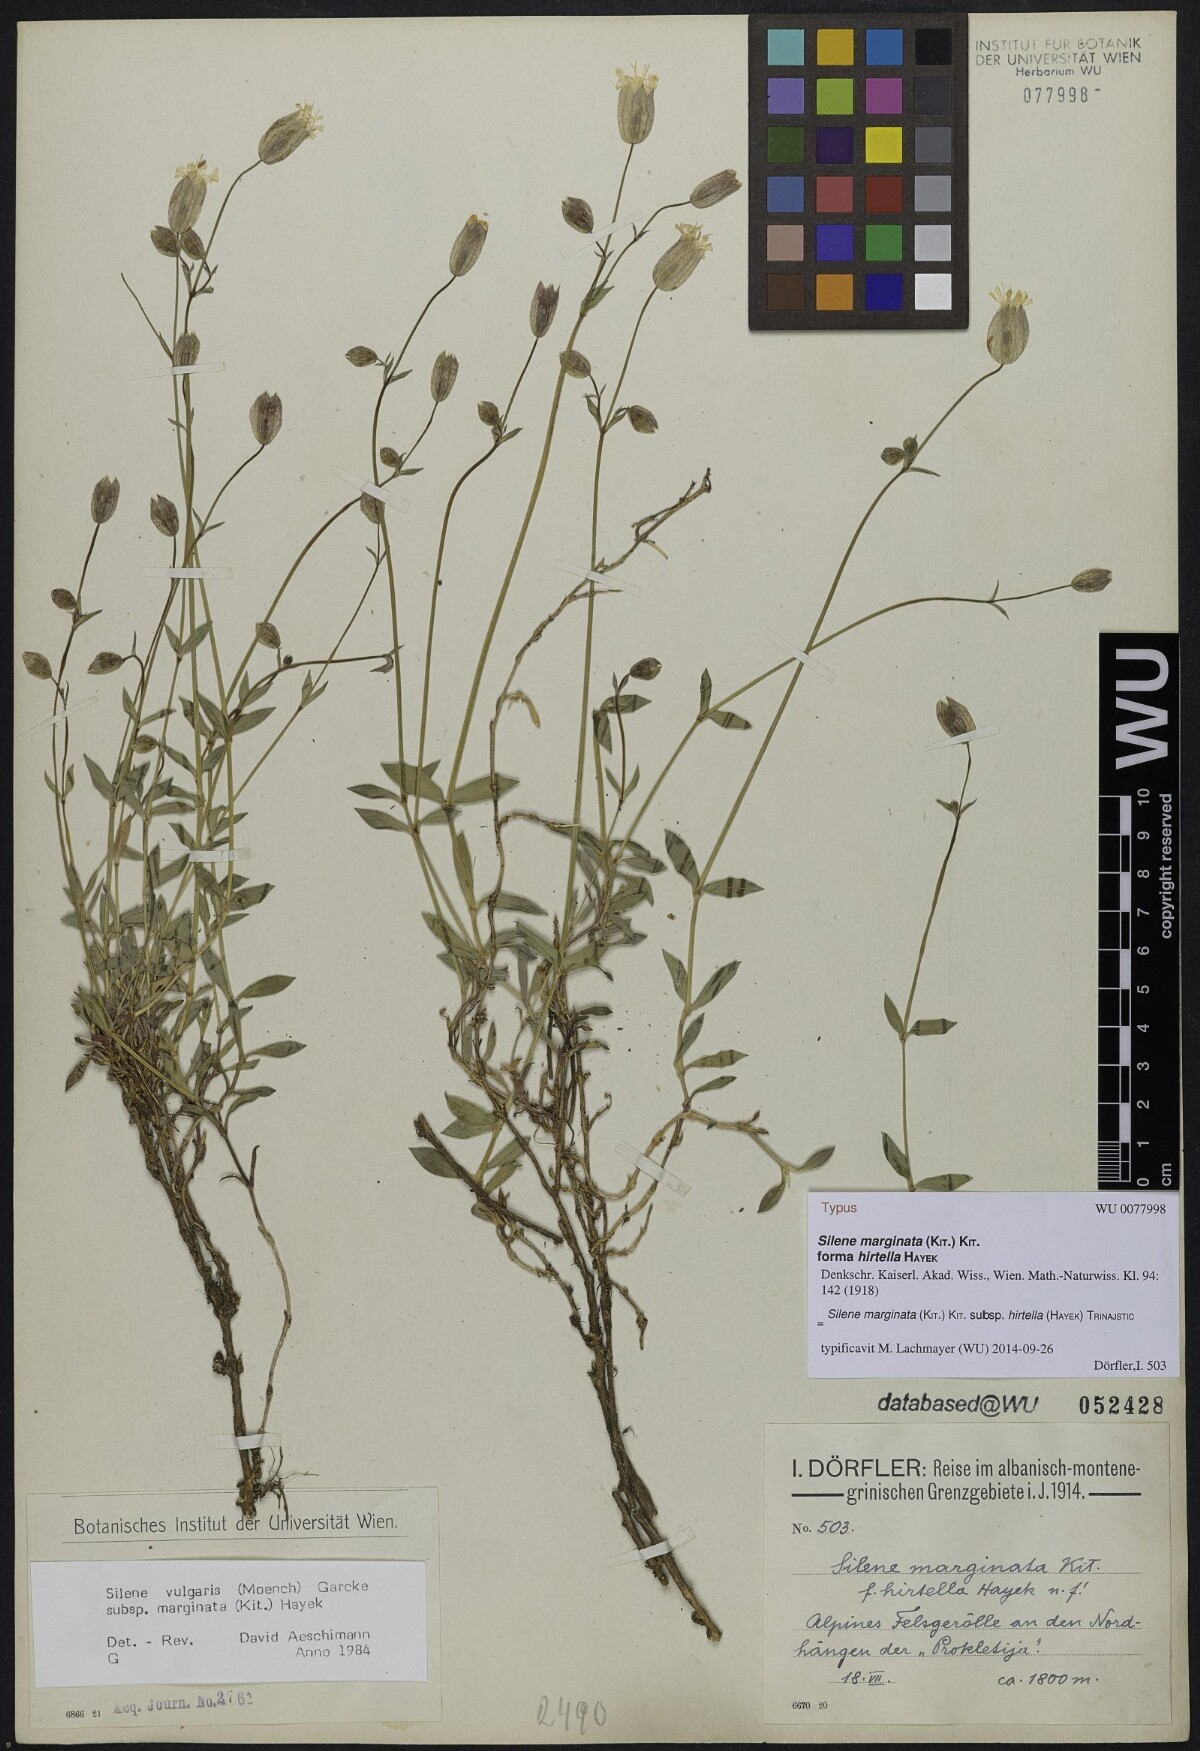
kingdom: Plantae
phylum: Tracheophyta
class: Magnoliopsida
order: Caryophyllales
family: Caryophyllaceae
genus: Silene
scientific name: Silene glareosa
